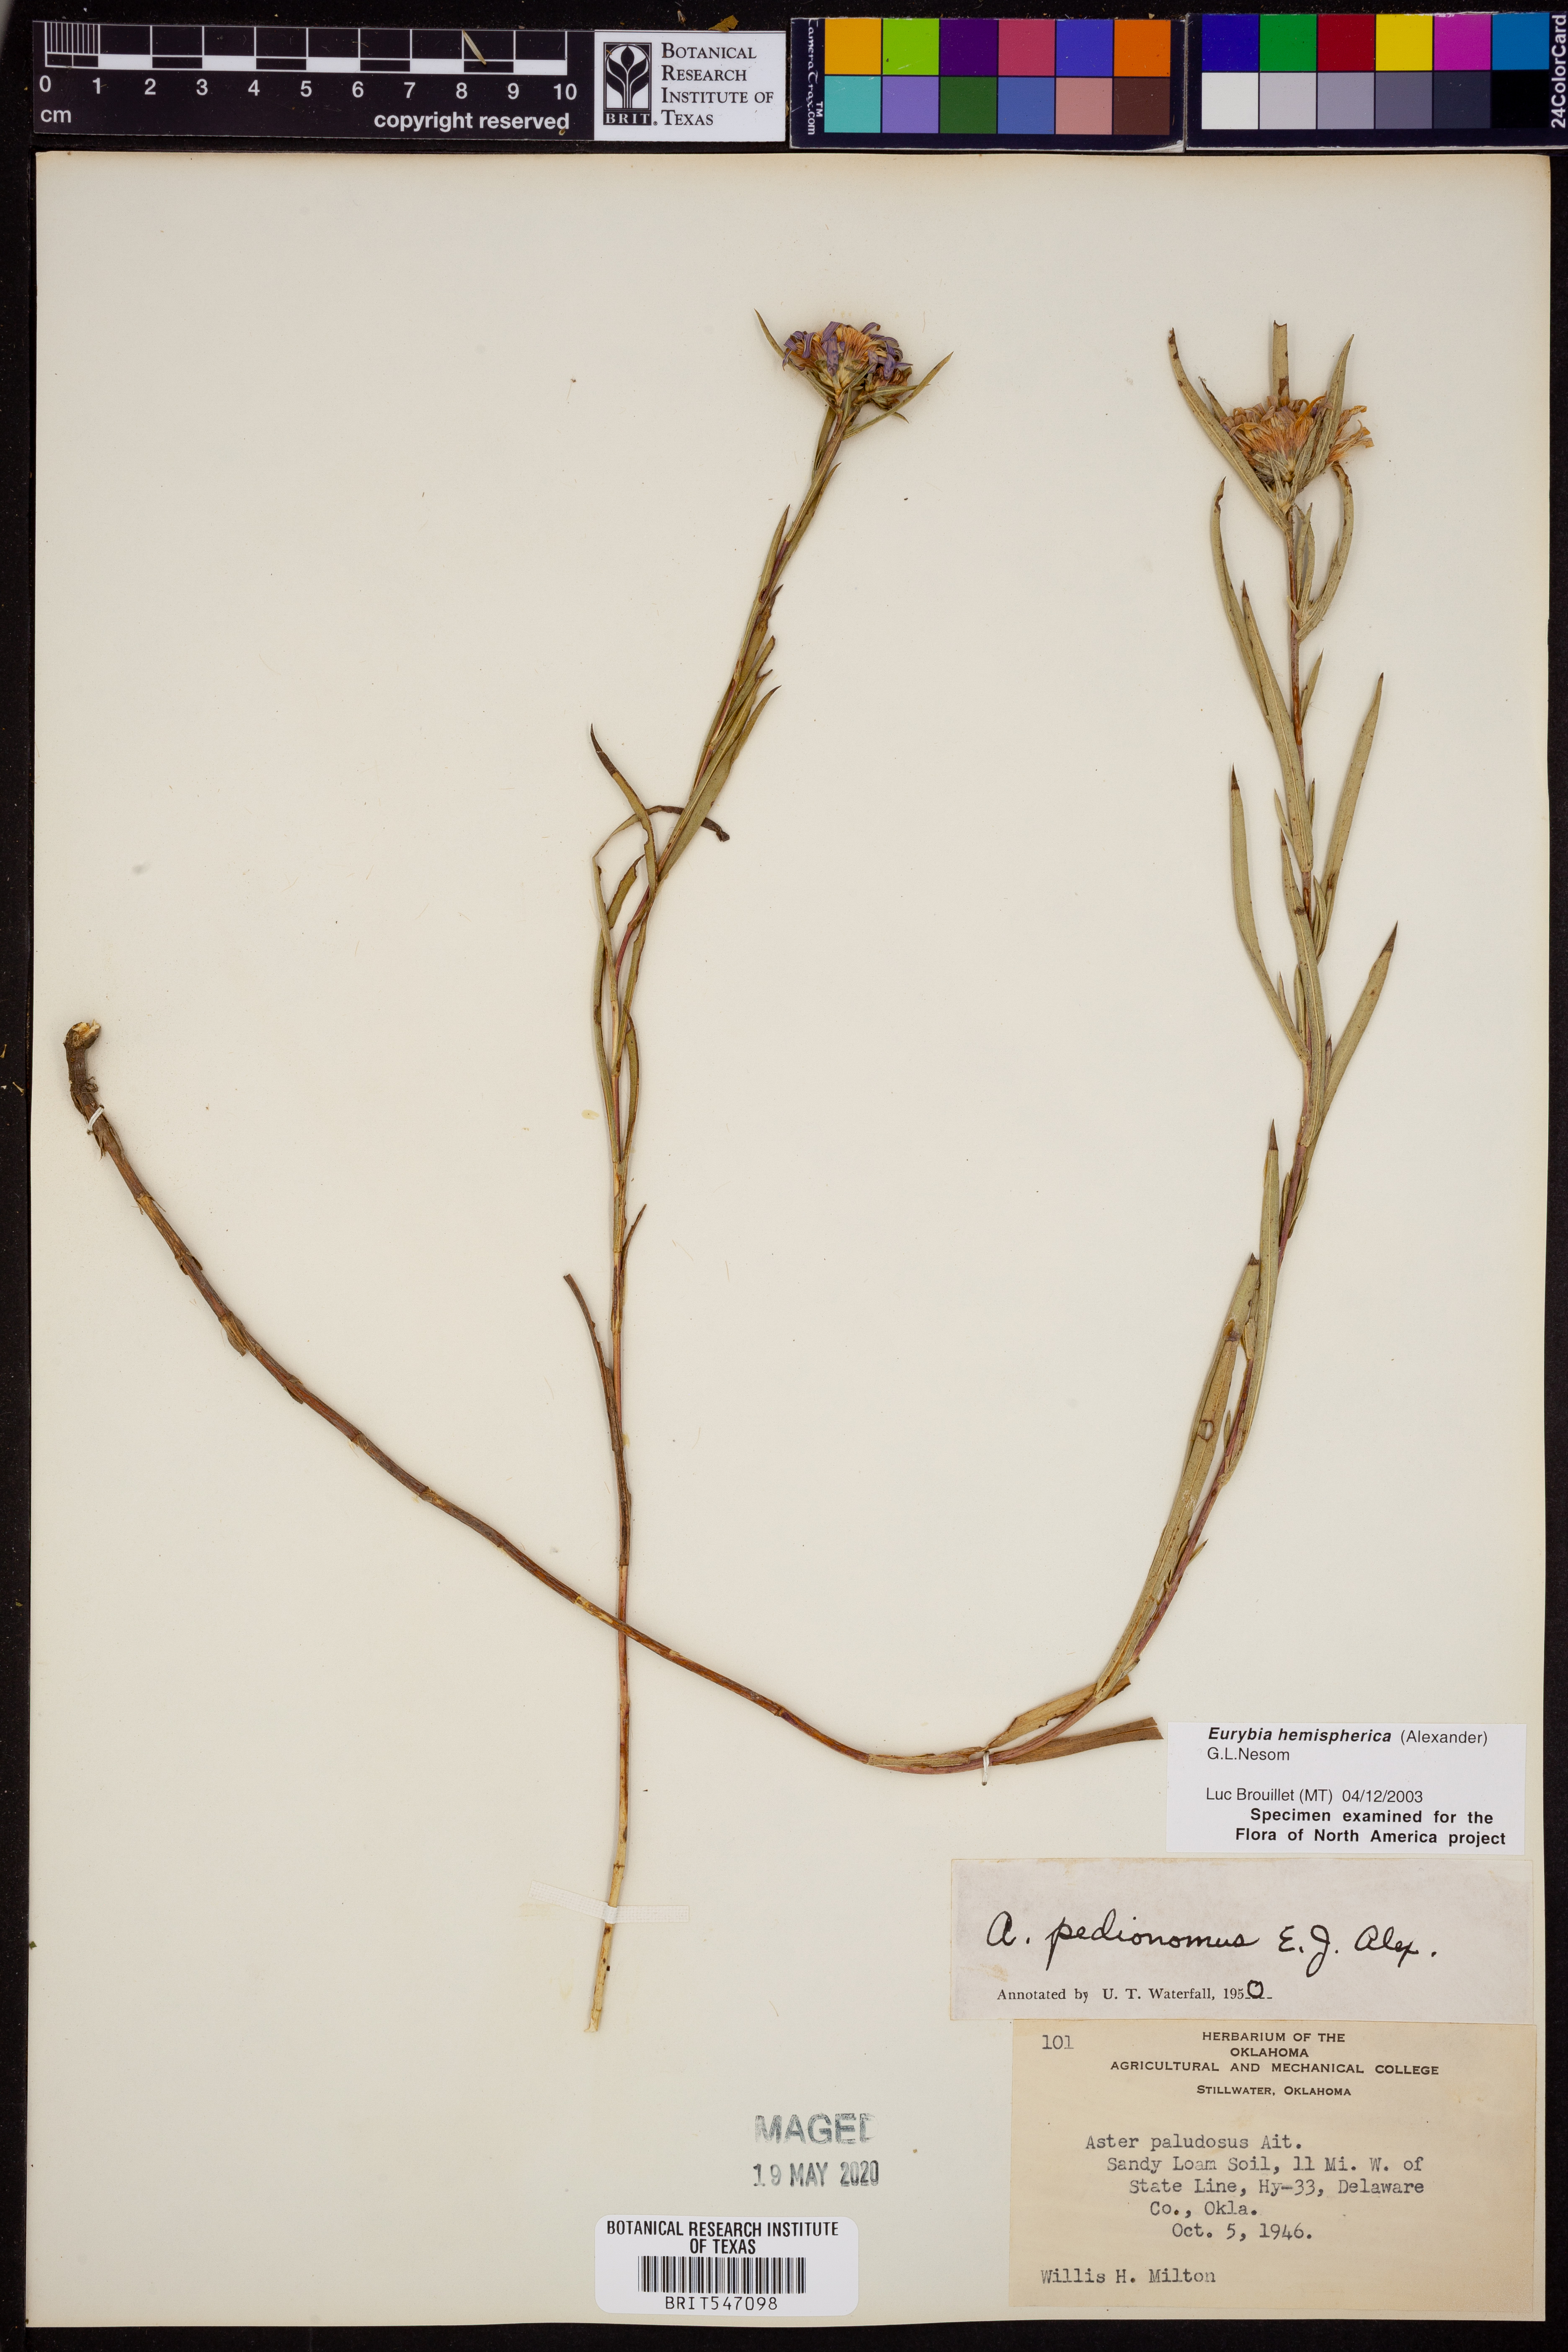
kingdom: Plantae
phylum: Tracheophyta
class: Magnoliopsida
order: Asterales
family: Asteraceae
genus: Eurybia
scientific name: Eurybia hemispherica
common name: Showy aster
